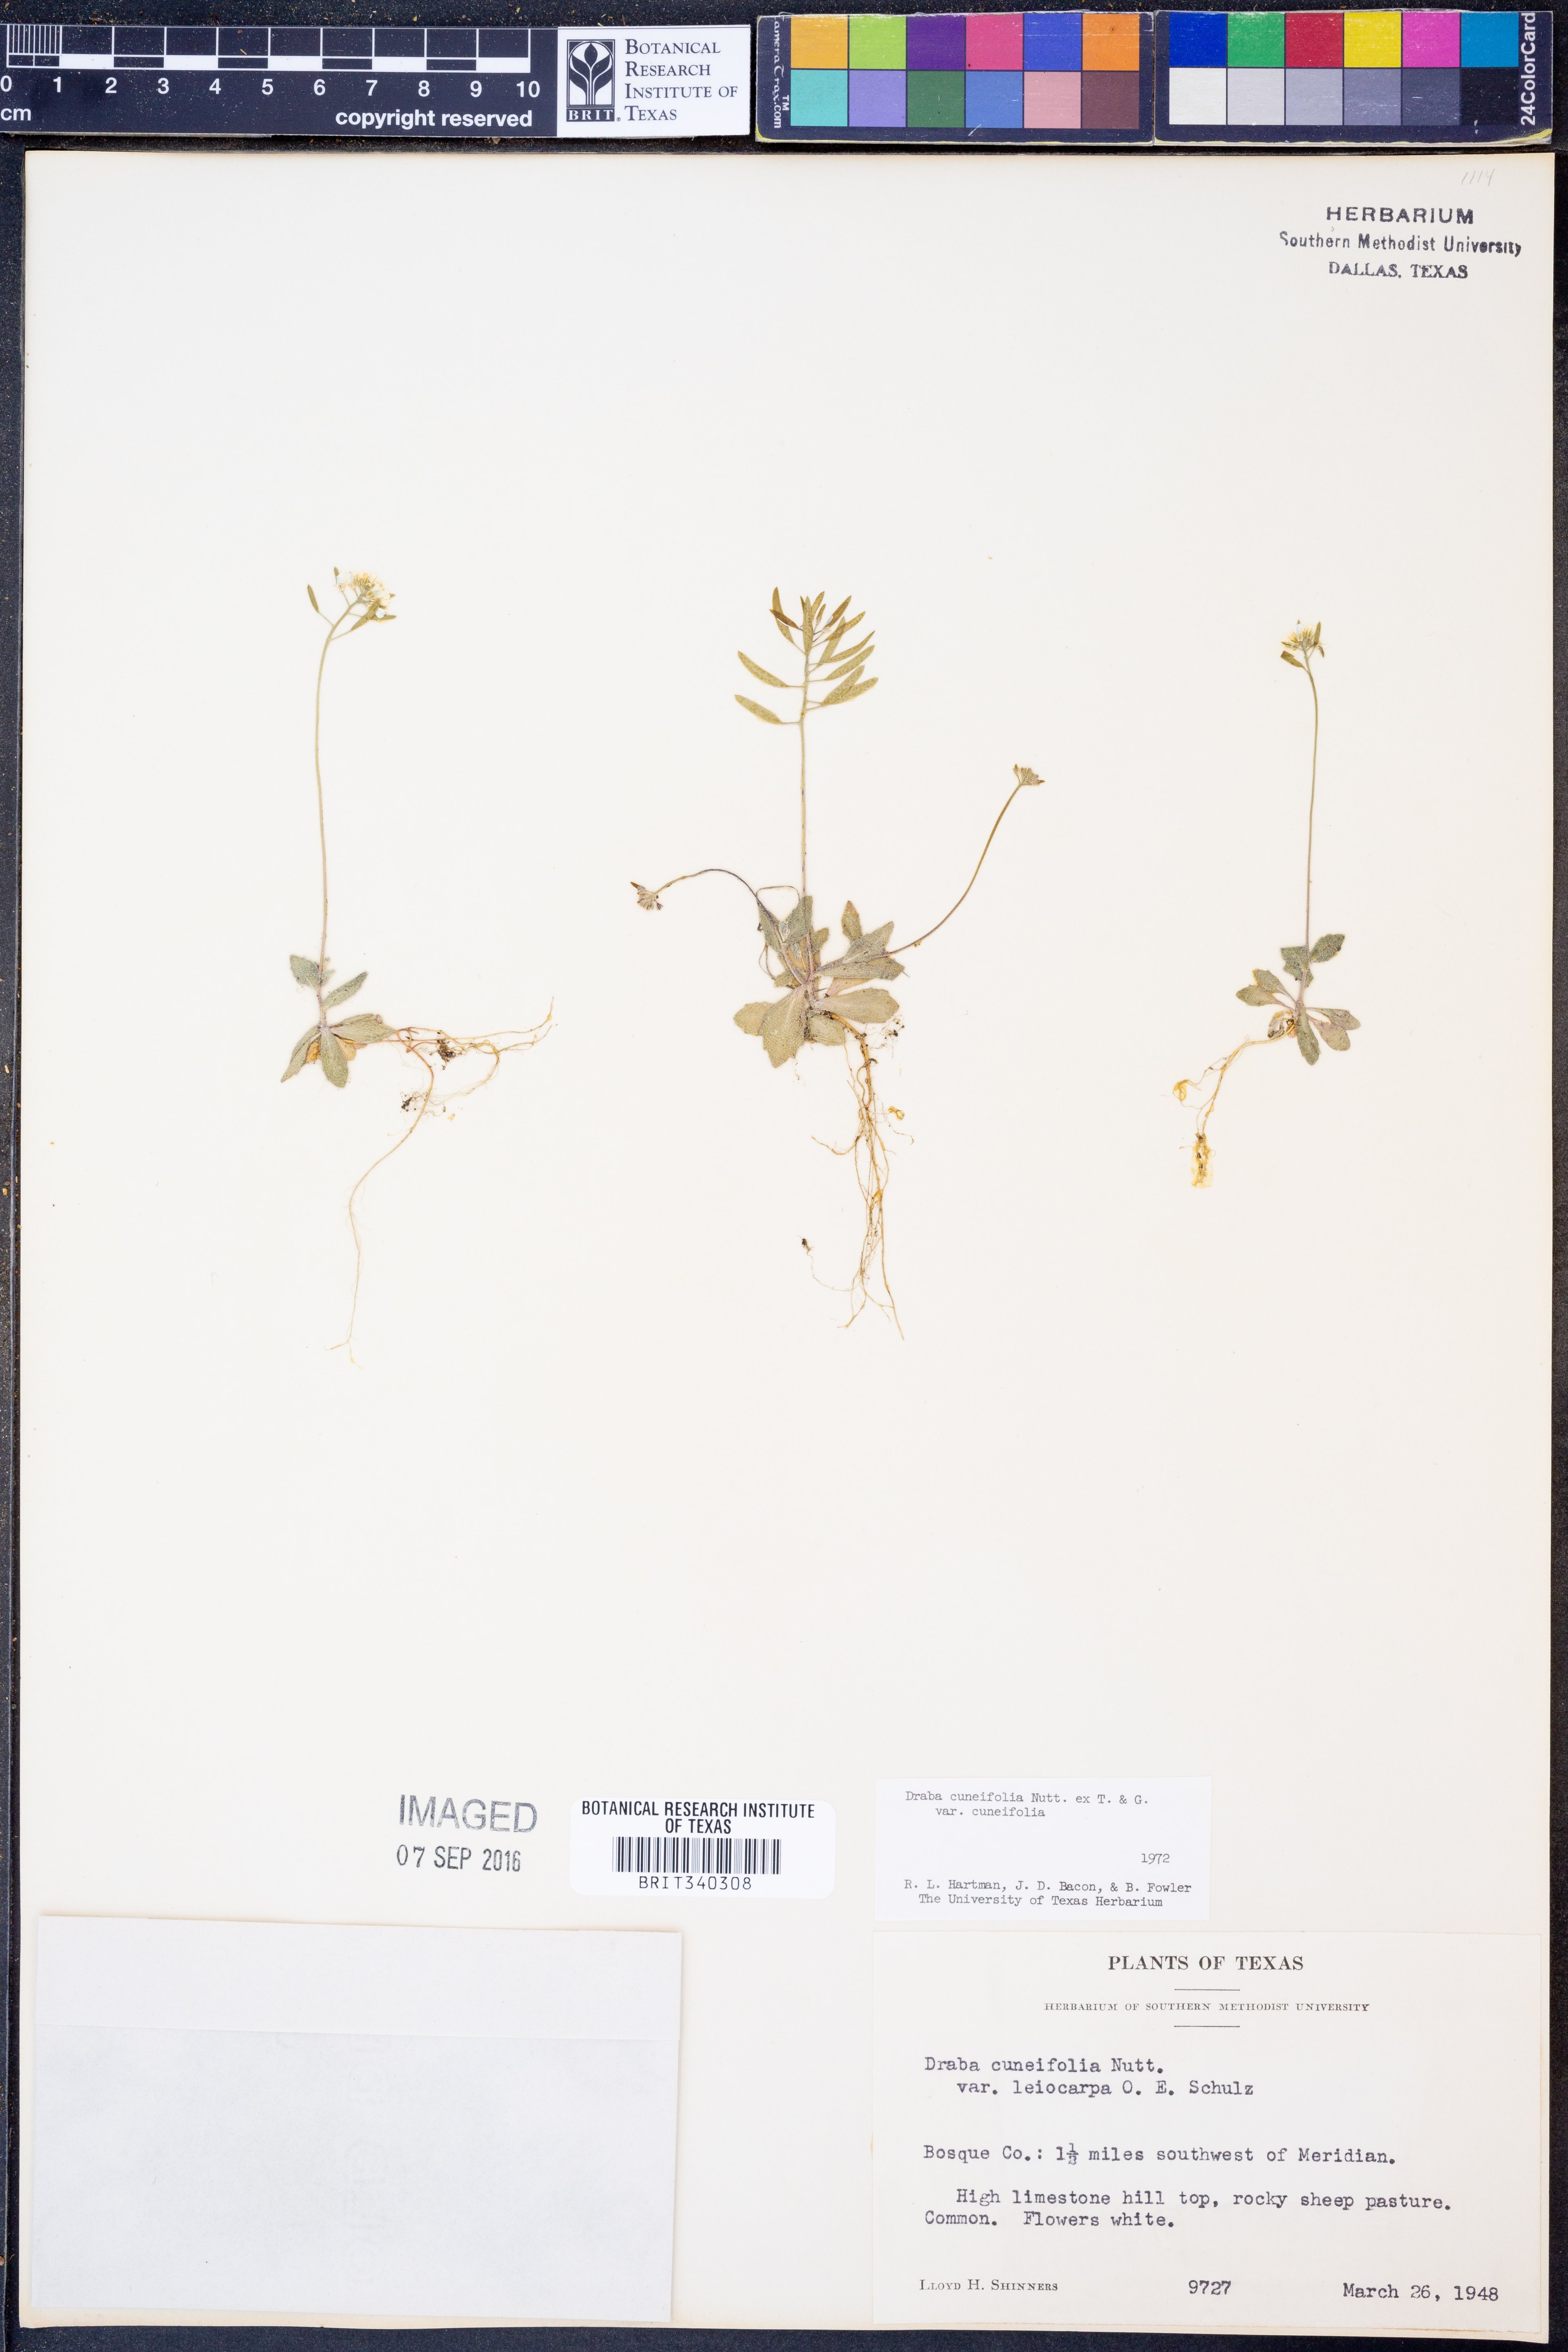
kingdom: Plantae
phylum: Tracheophyta
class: Magnoliopsida
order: Brassicales
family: Brassicaceae
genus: Tomostima
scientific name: Tomostima cuneifolia
